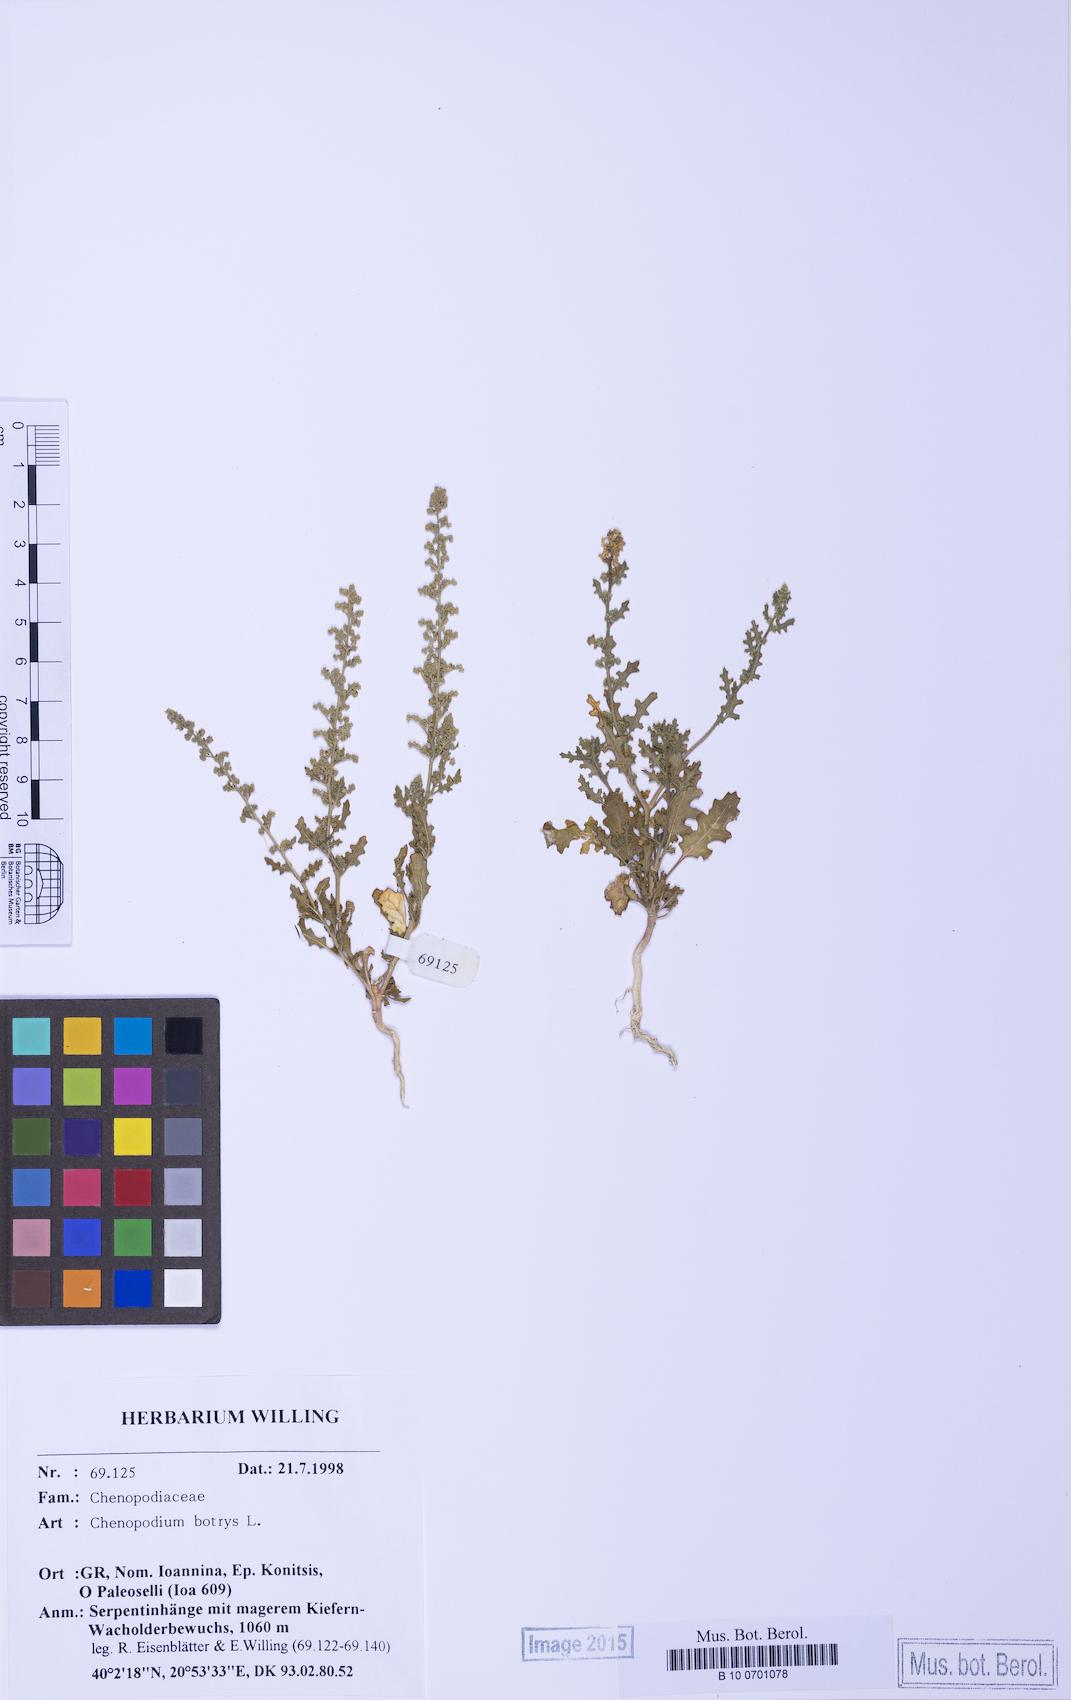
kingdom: Plantae
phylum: Tracheophyta
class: Magnoliopsida
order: Caryophyllales
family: Amaranthaceae
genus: Dysphania
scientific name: Dysphania botrys
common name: Feather-geranium
